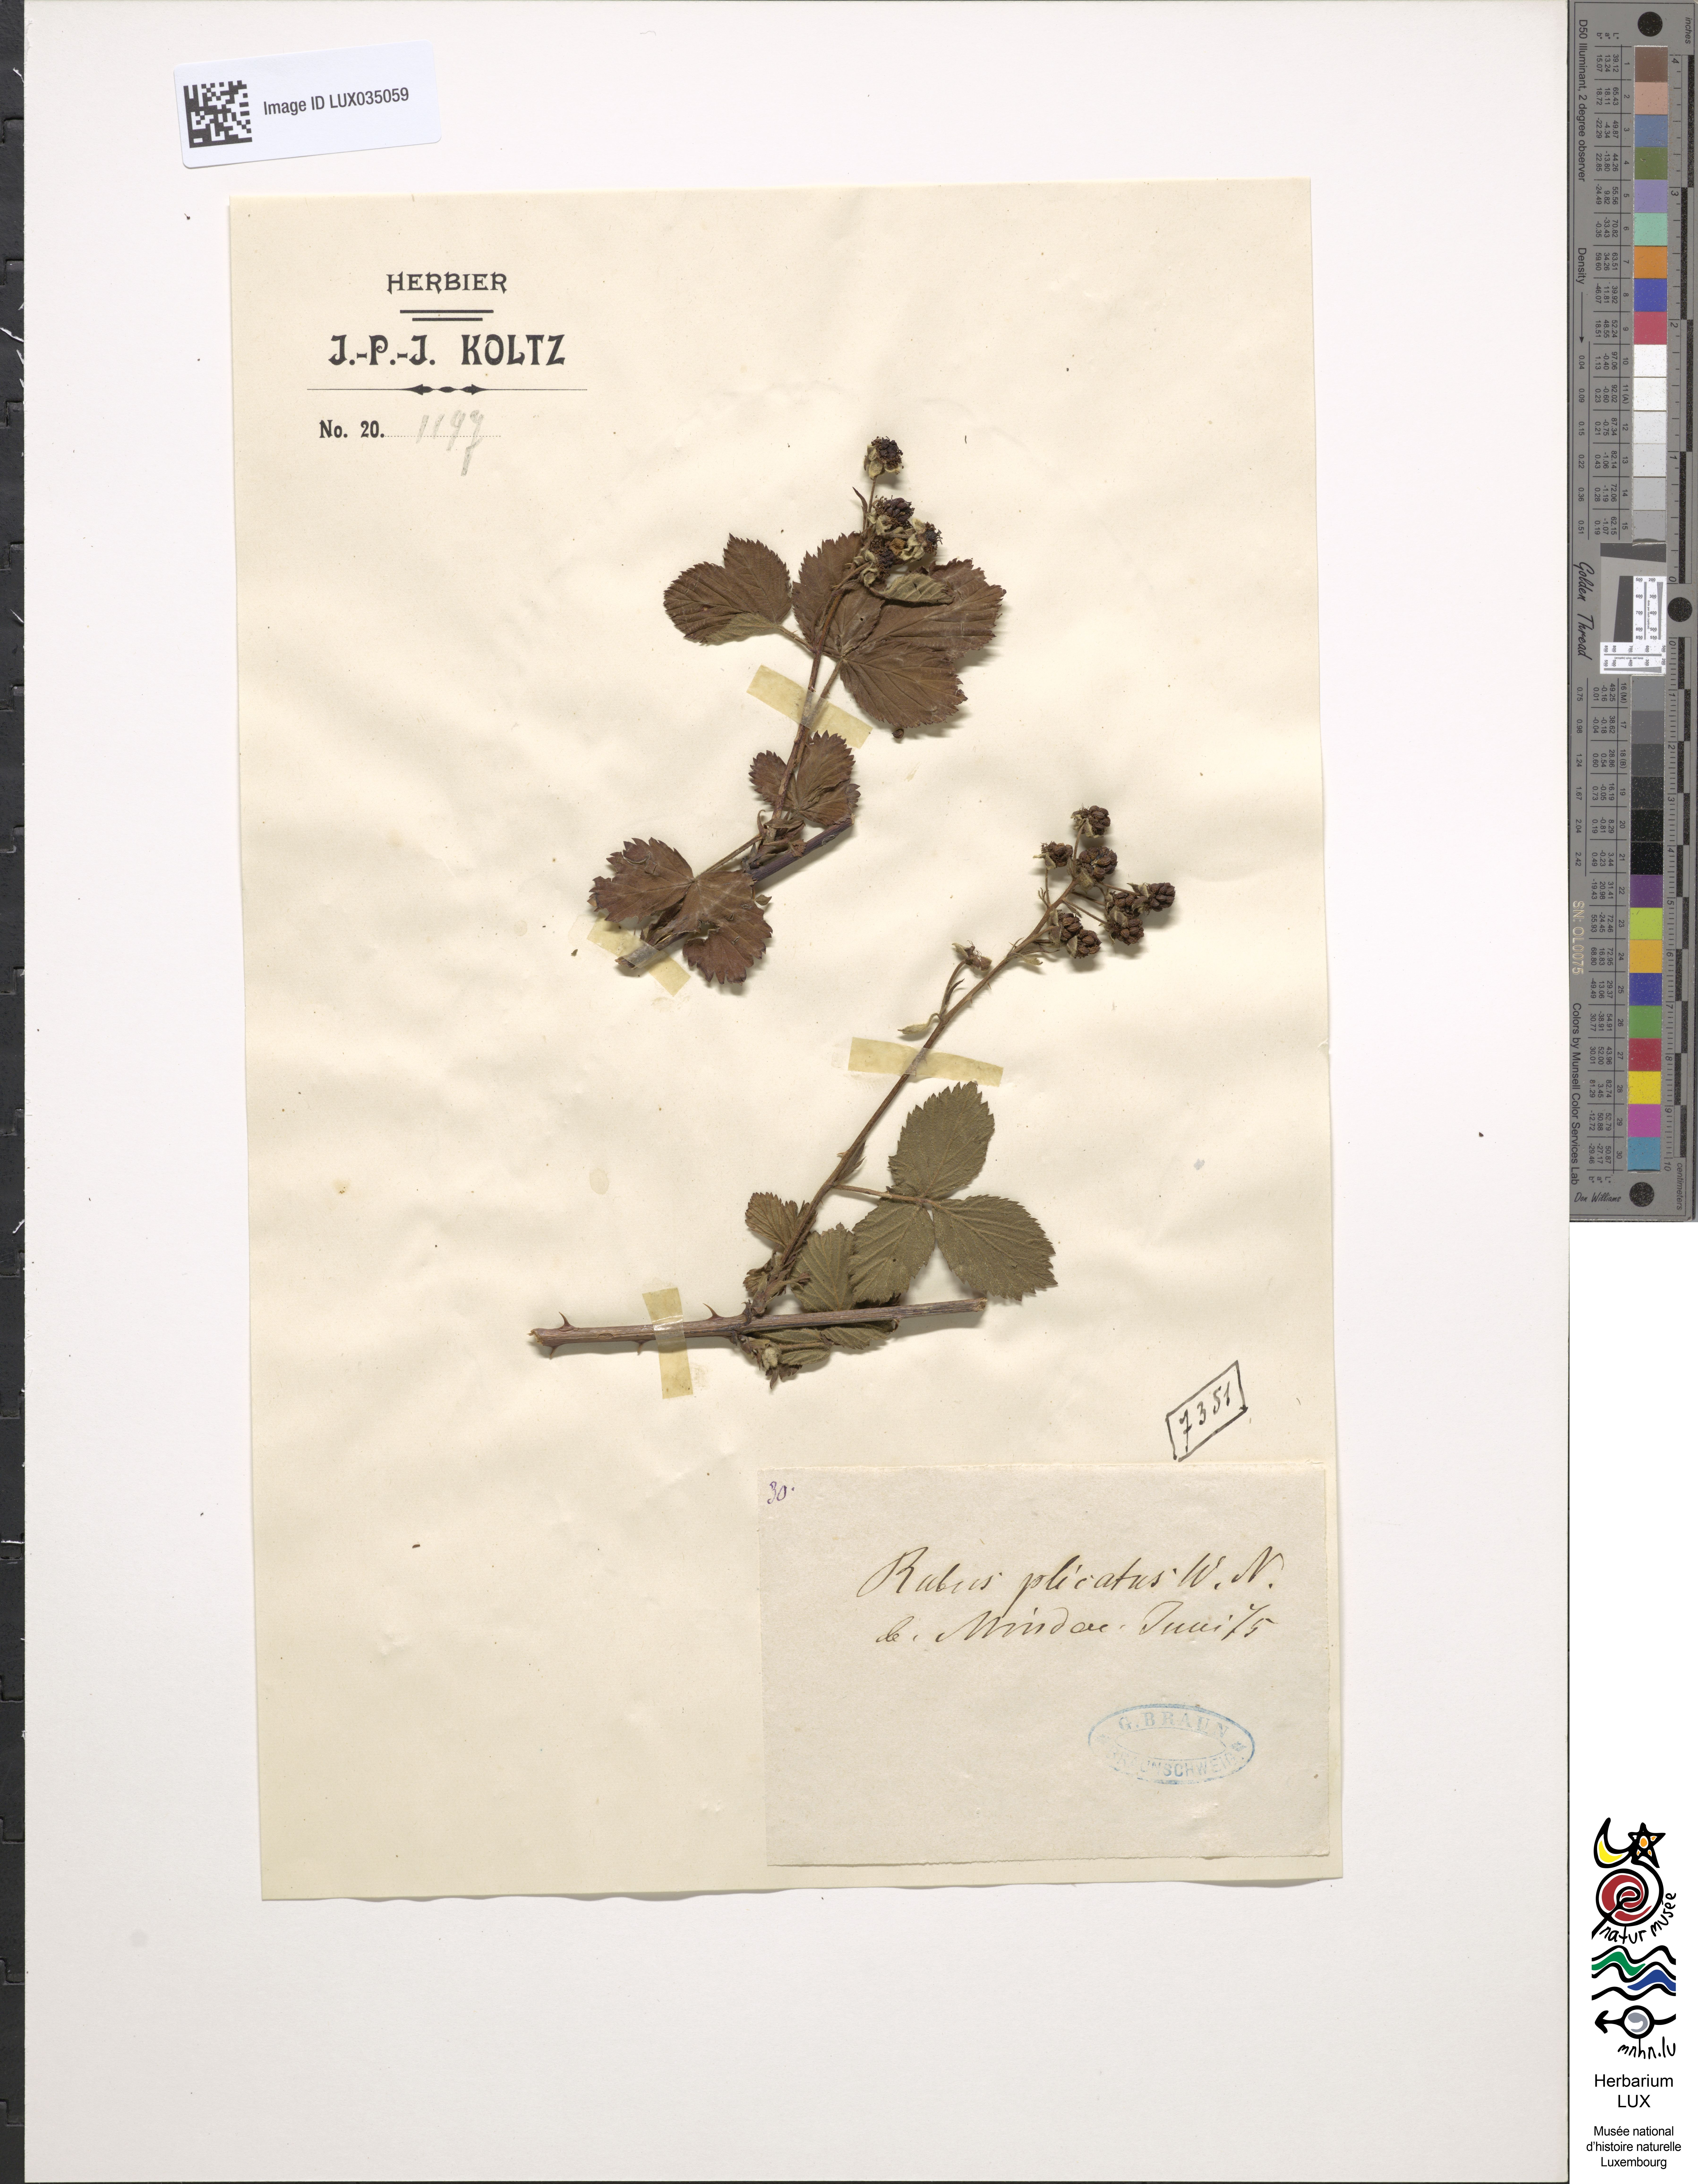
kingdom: Plantae
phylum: Tracheophyta
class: Magnoliopsida
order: Rosales
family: Rosaceae
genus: Rubus
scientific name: Rubus plicatus
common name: Plaited-leaved bramble
